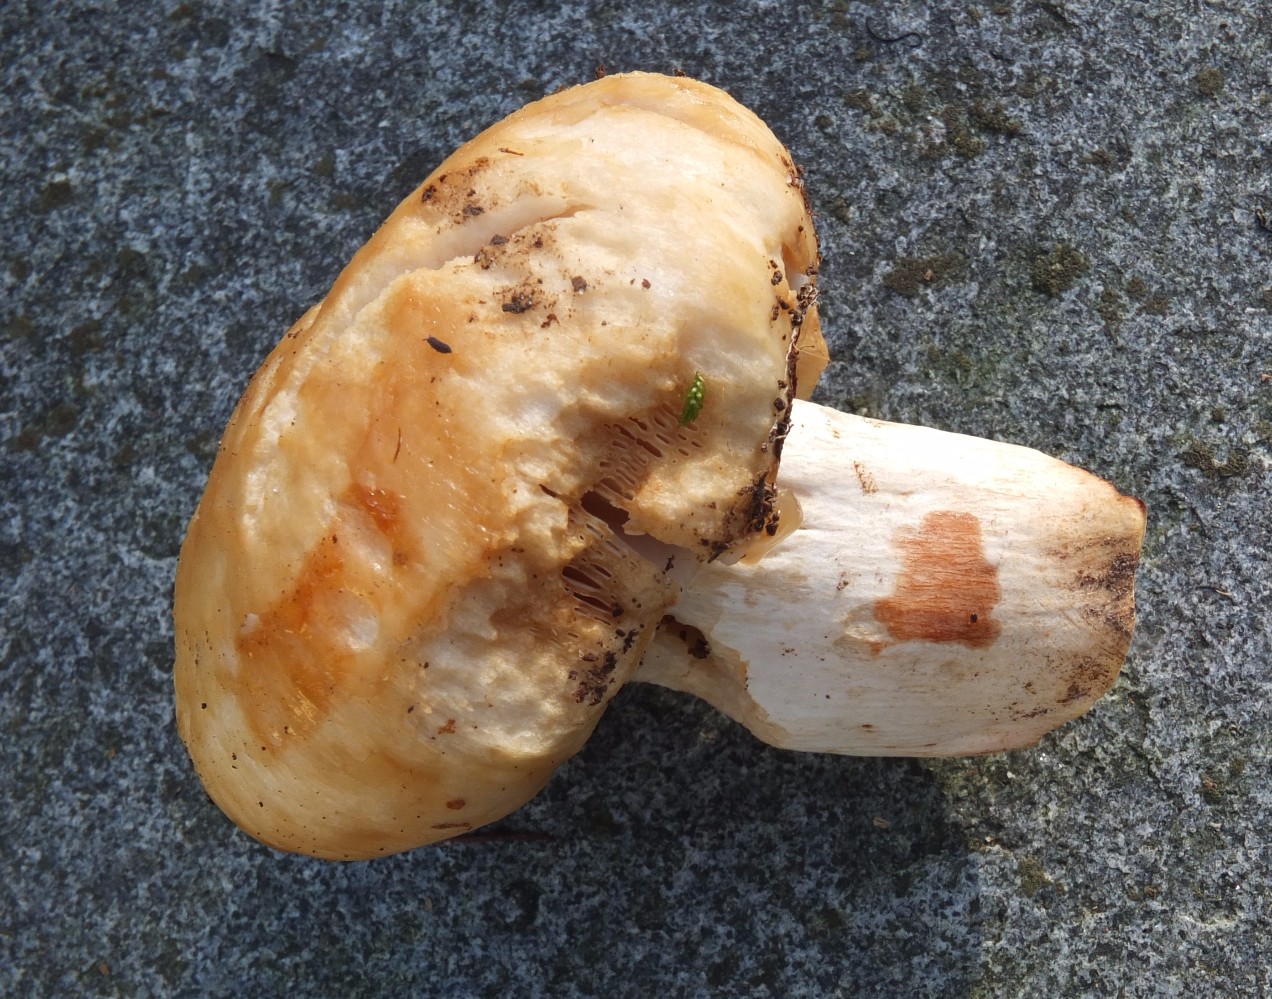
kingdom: Fungi
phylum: Basidiomycota
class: Agaricomycetes
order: Russulales
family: Russulaceae
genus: Russula
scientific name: Russula
